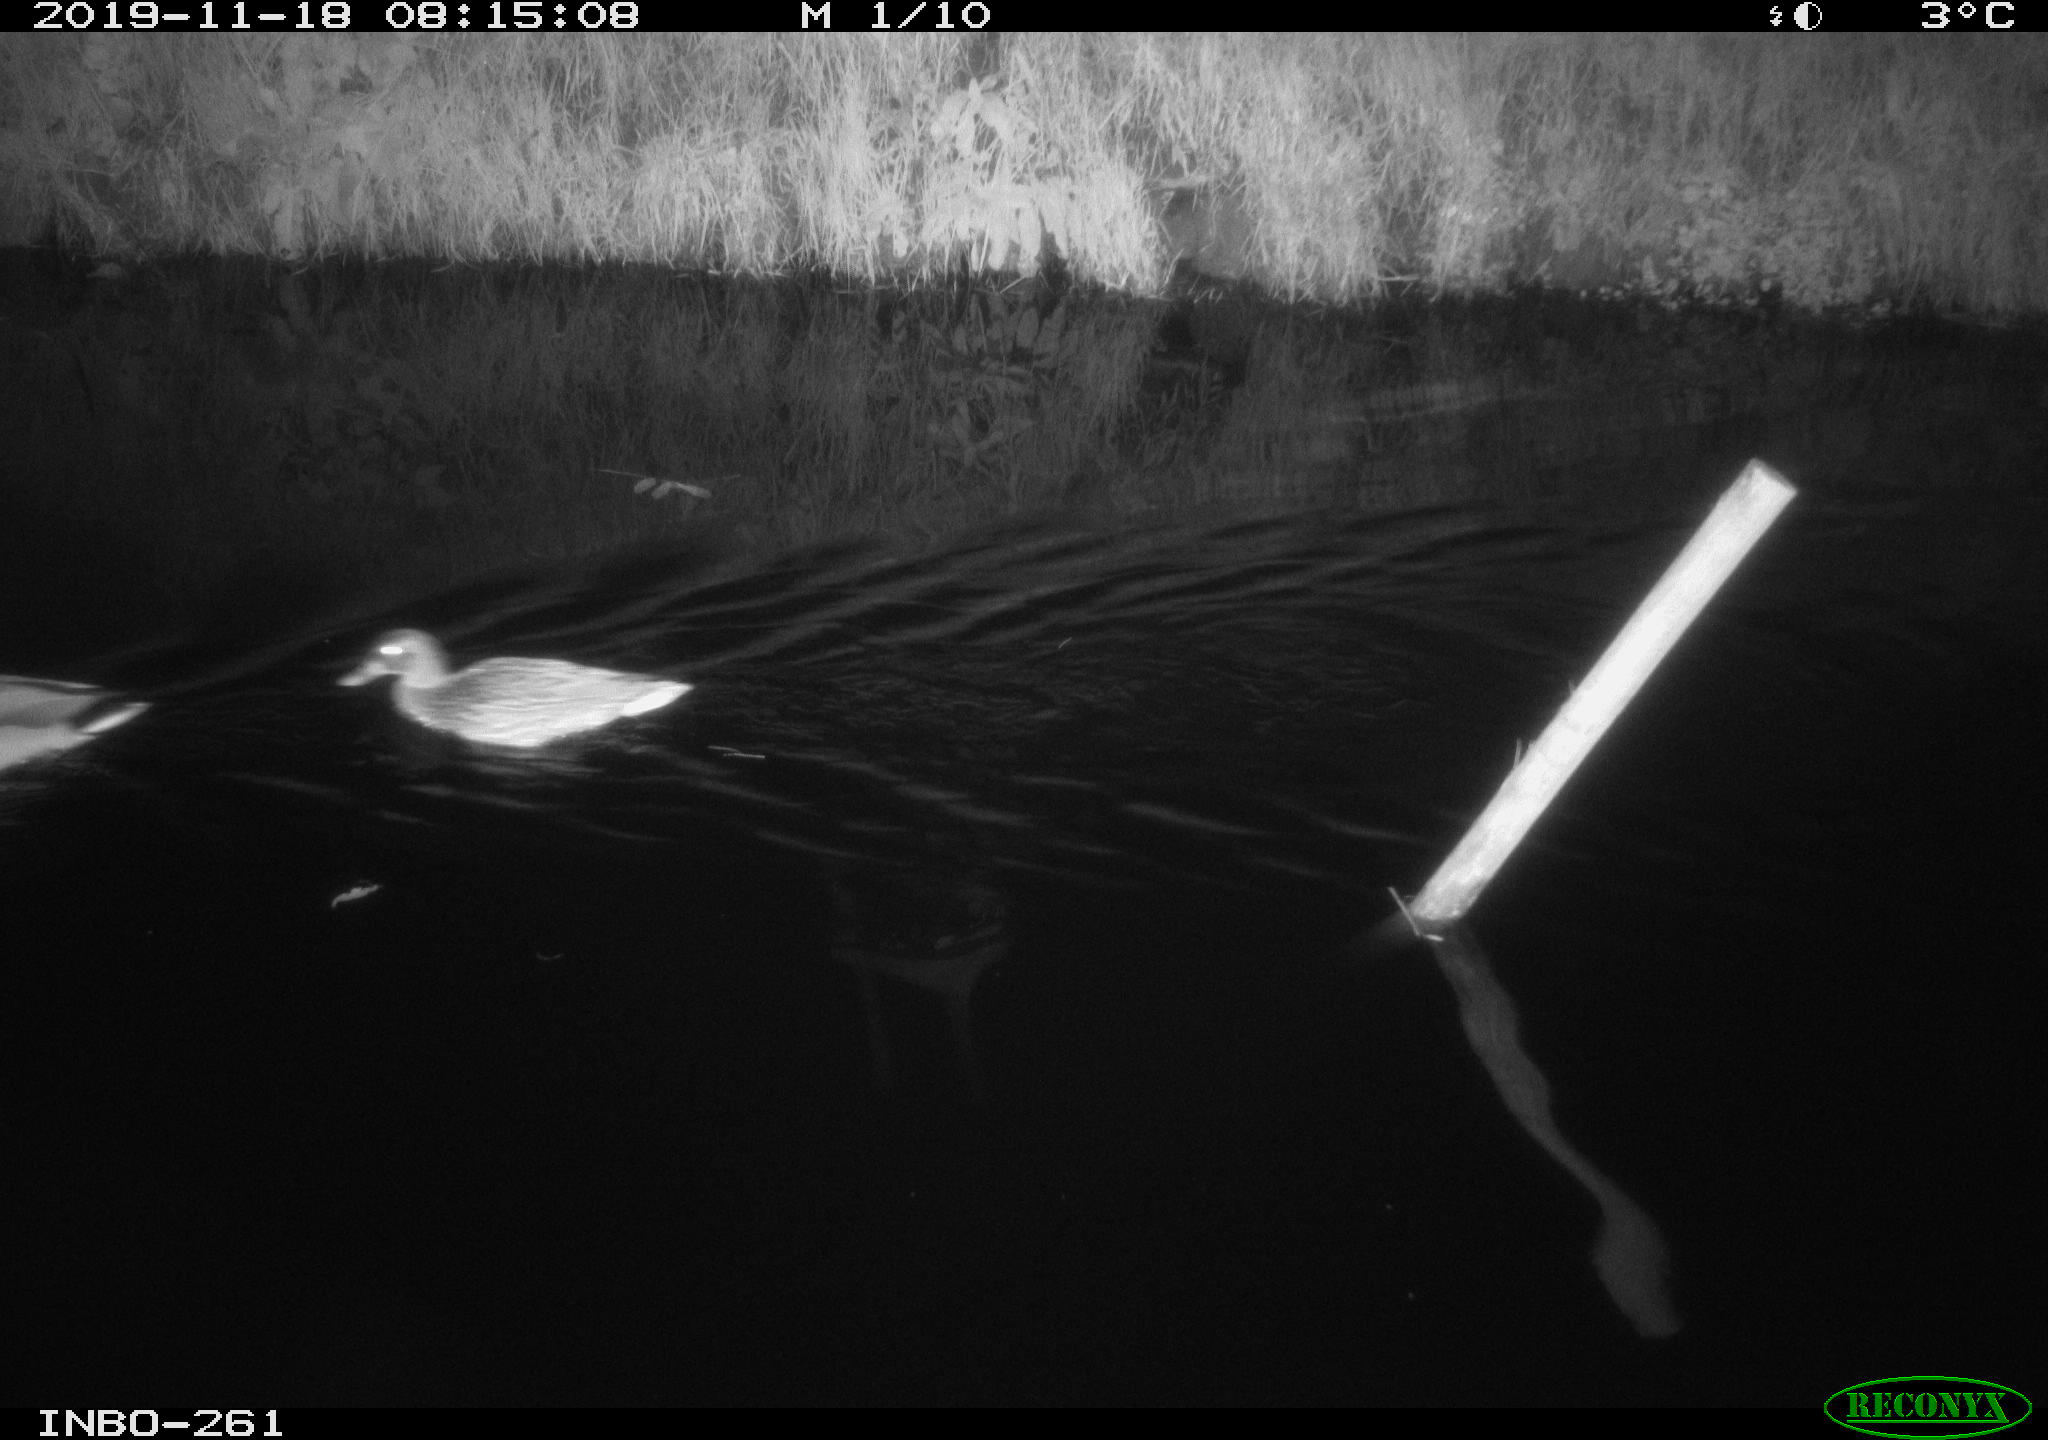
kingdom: Animalia
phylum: Chordata
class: Aves
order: Anseriformes
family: Anatidae
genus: Anas
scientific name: Anas platyrhynchos
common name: Mallard
